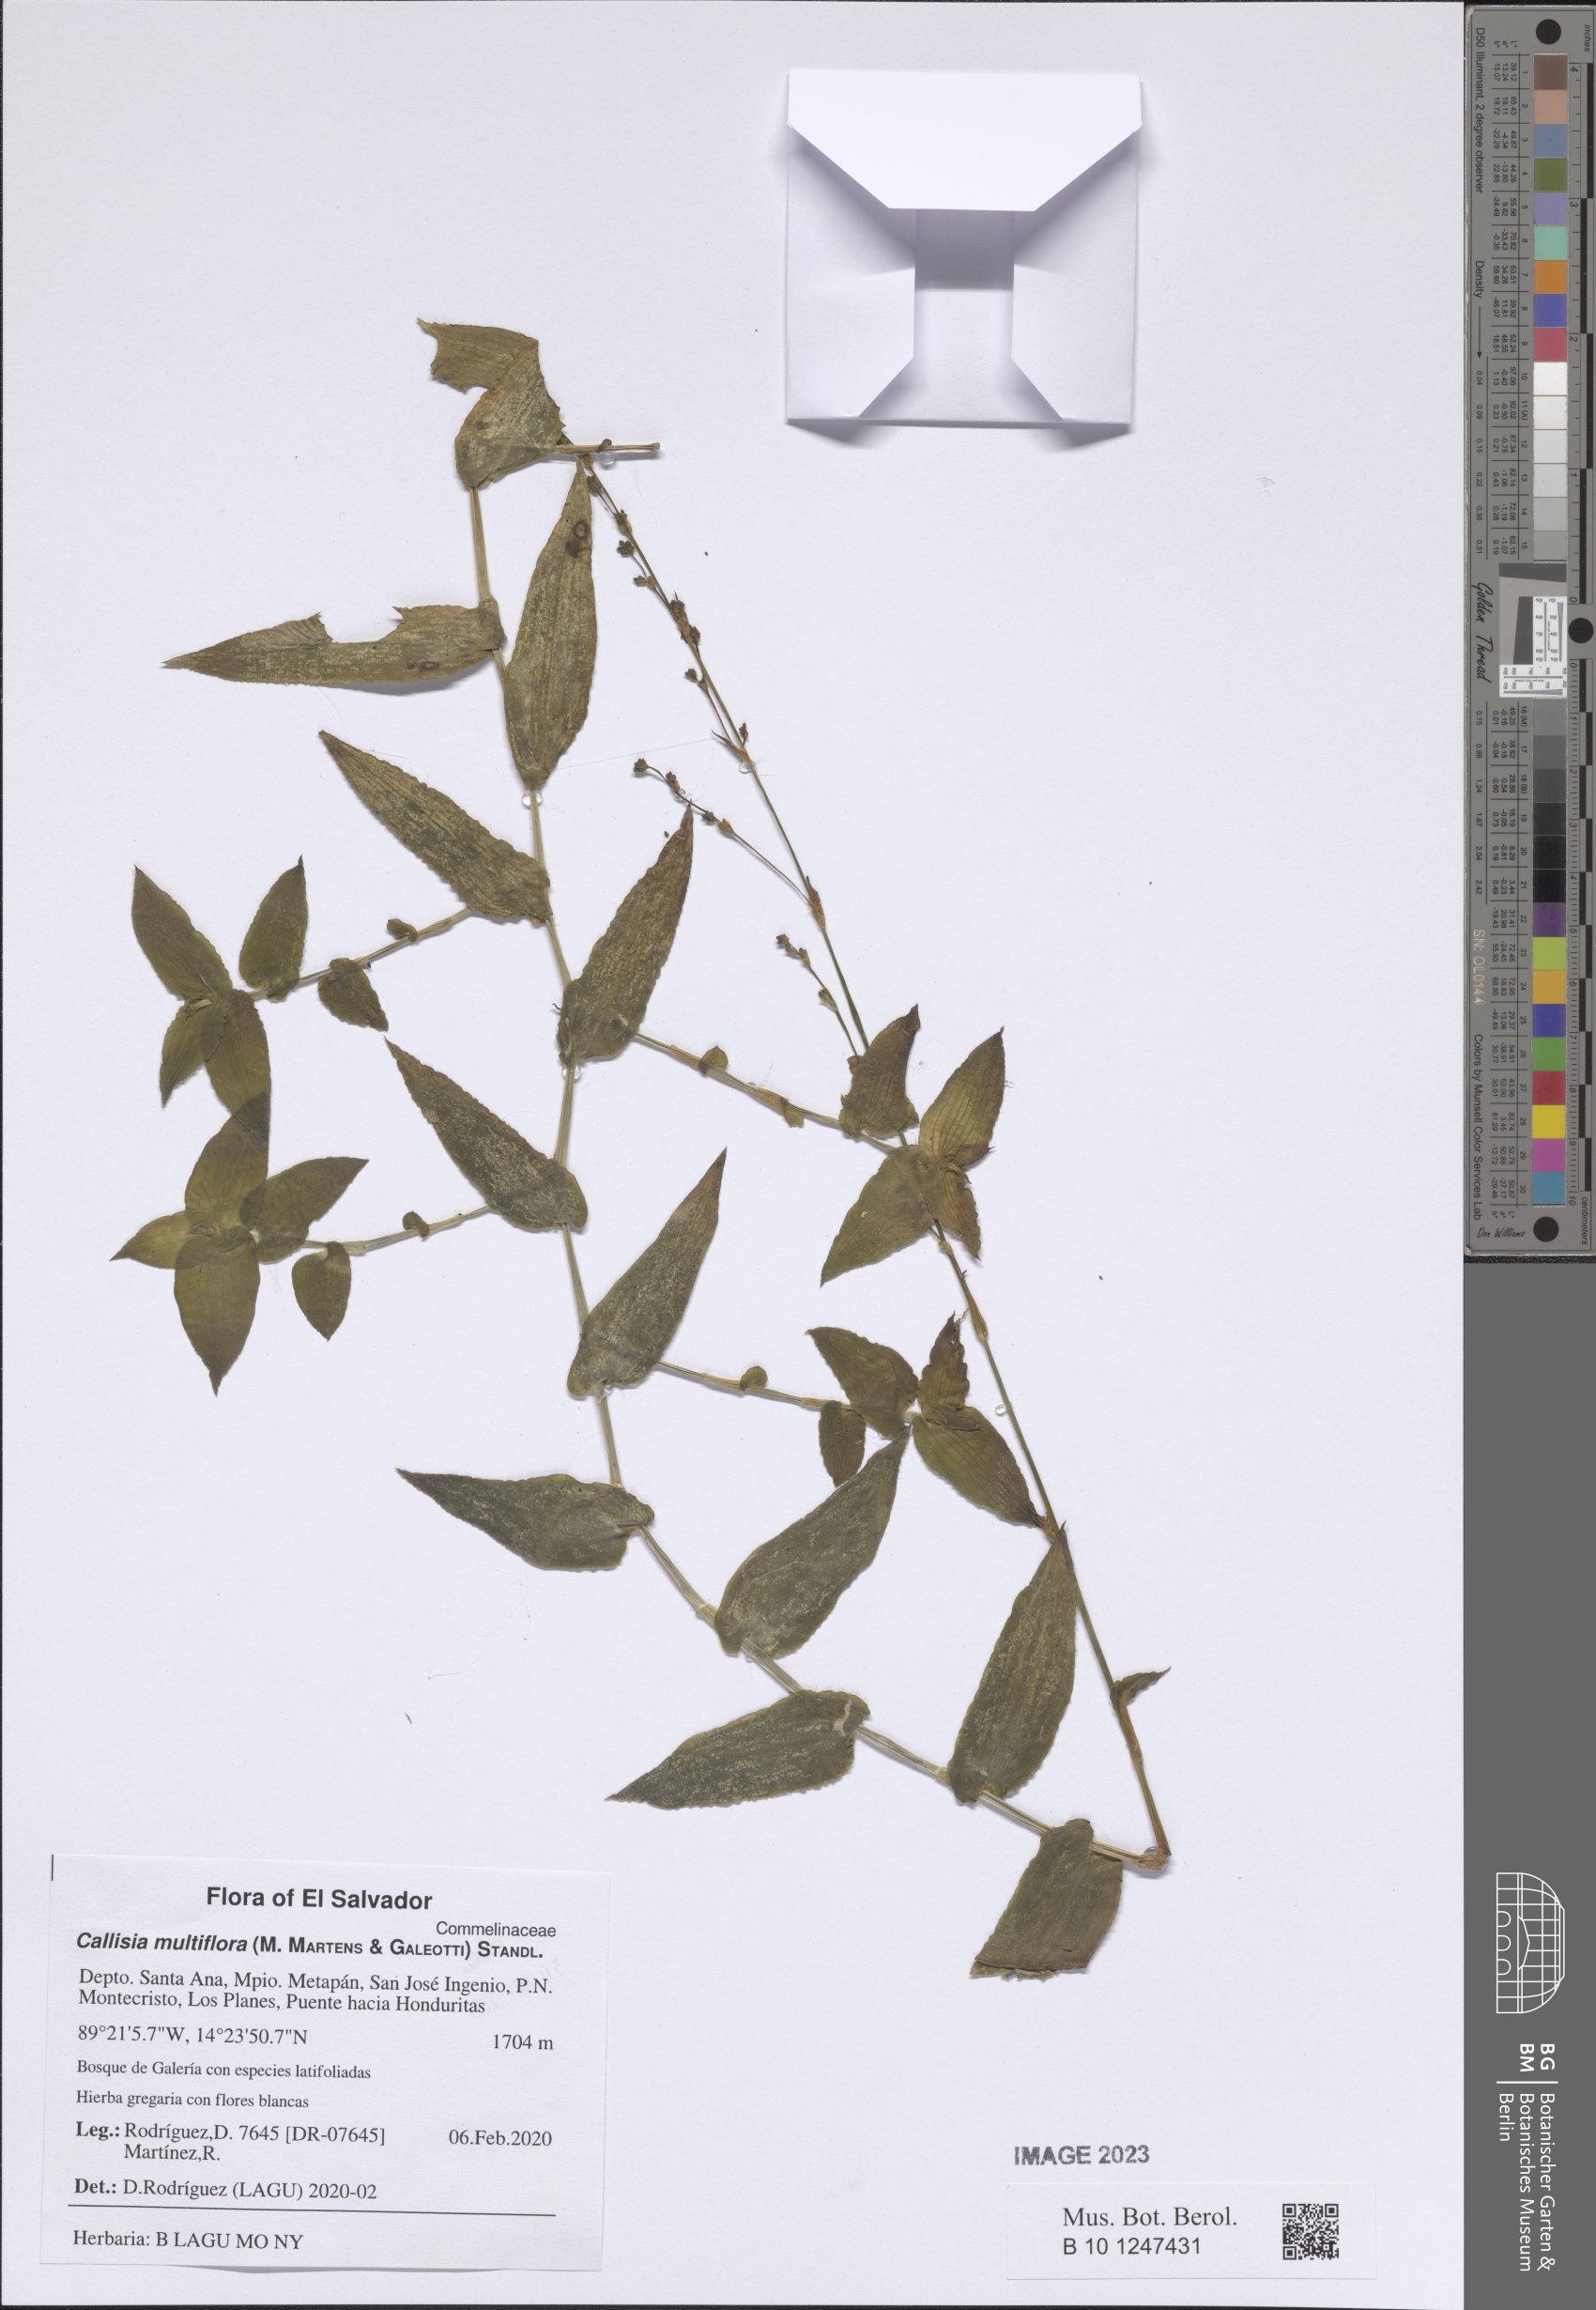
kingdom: Plantae
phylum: Tracheophyta
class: Liliopsida
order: Commelinales
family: Commelinaceae
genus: Callisia
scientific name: Callisia multiflora
